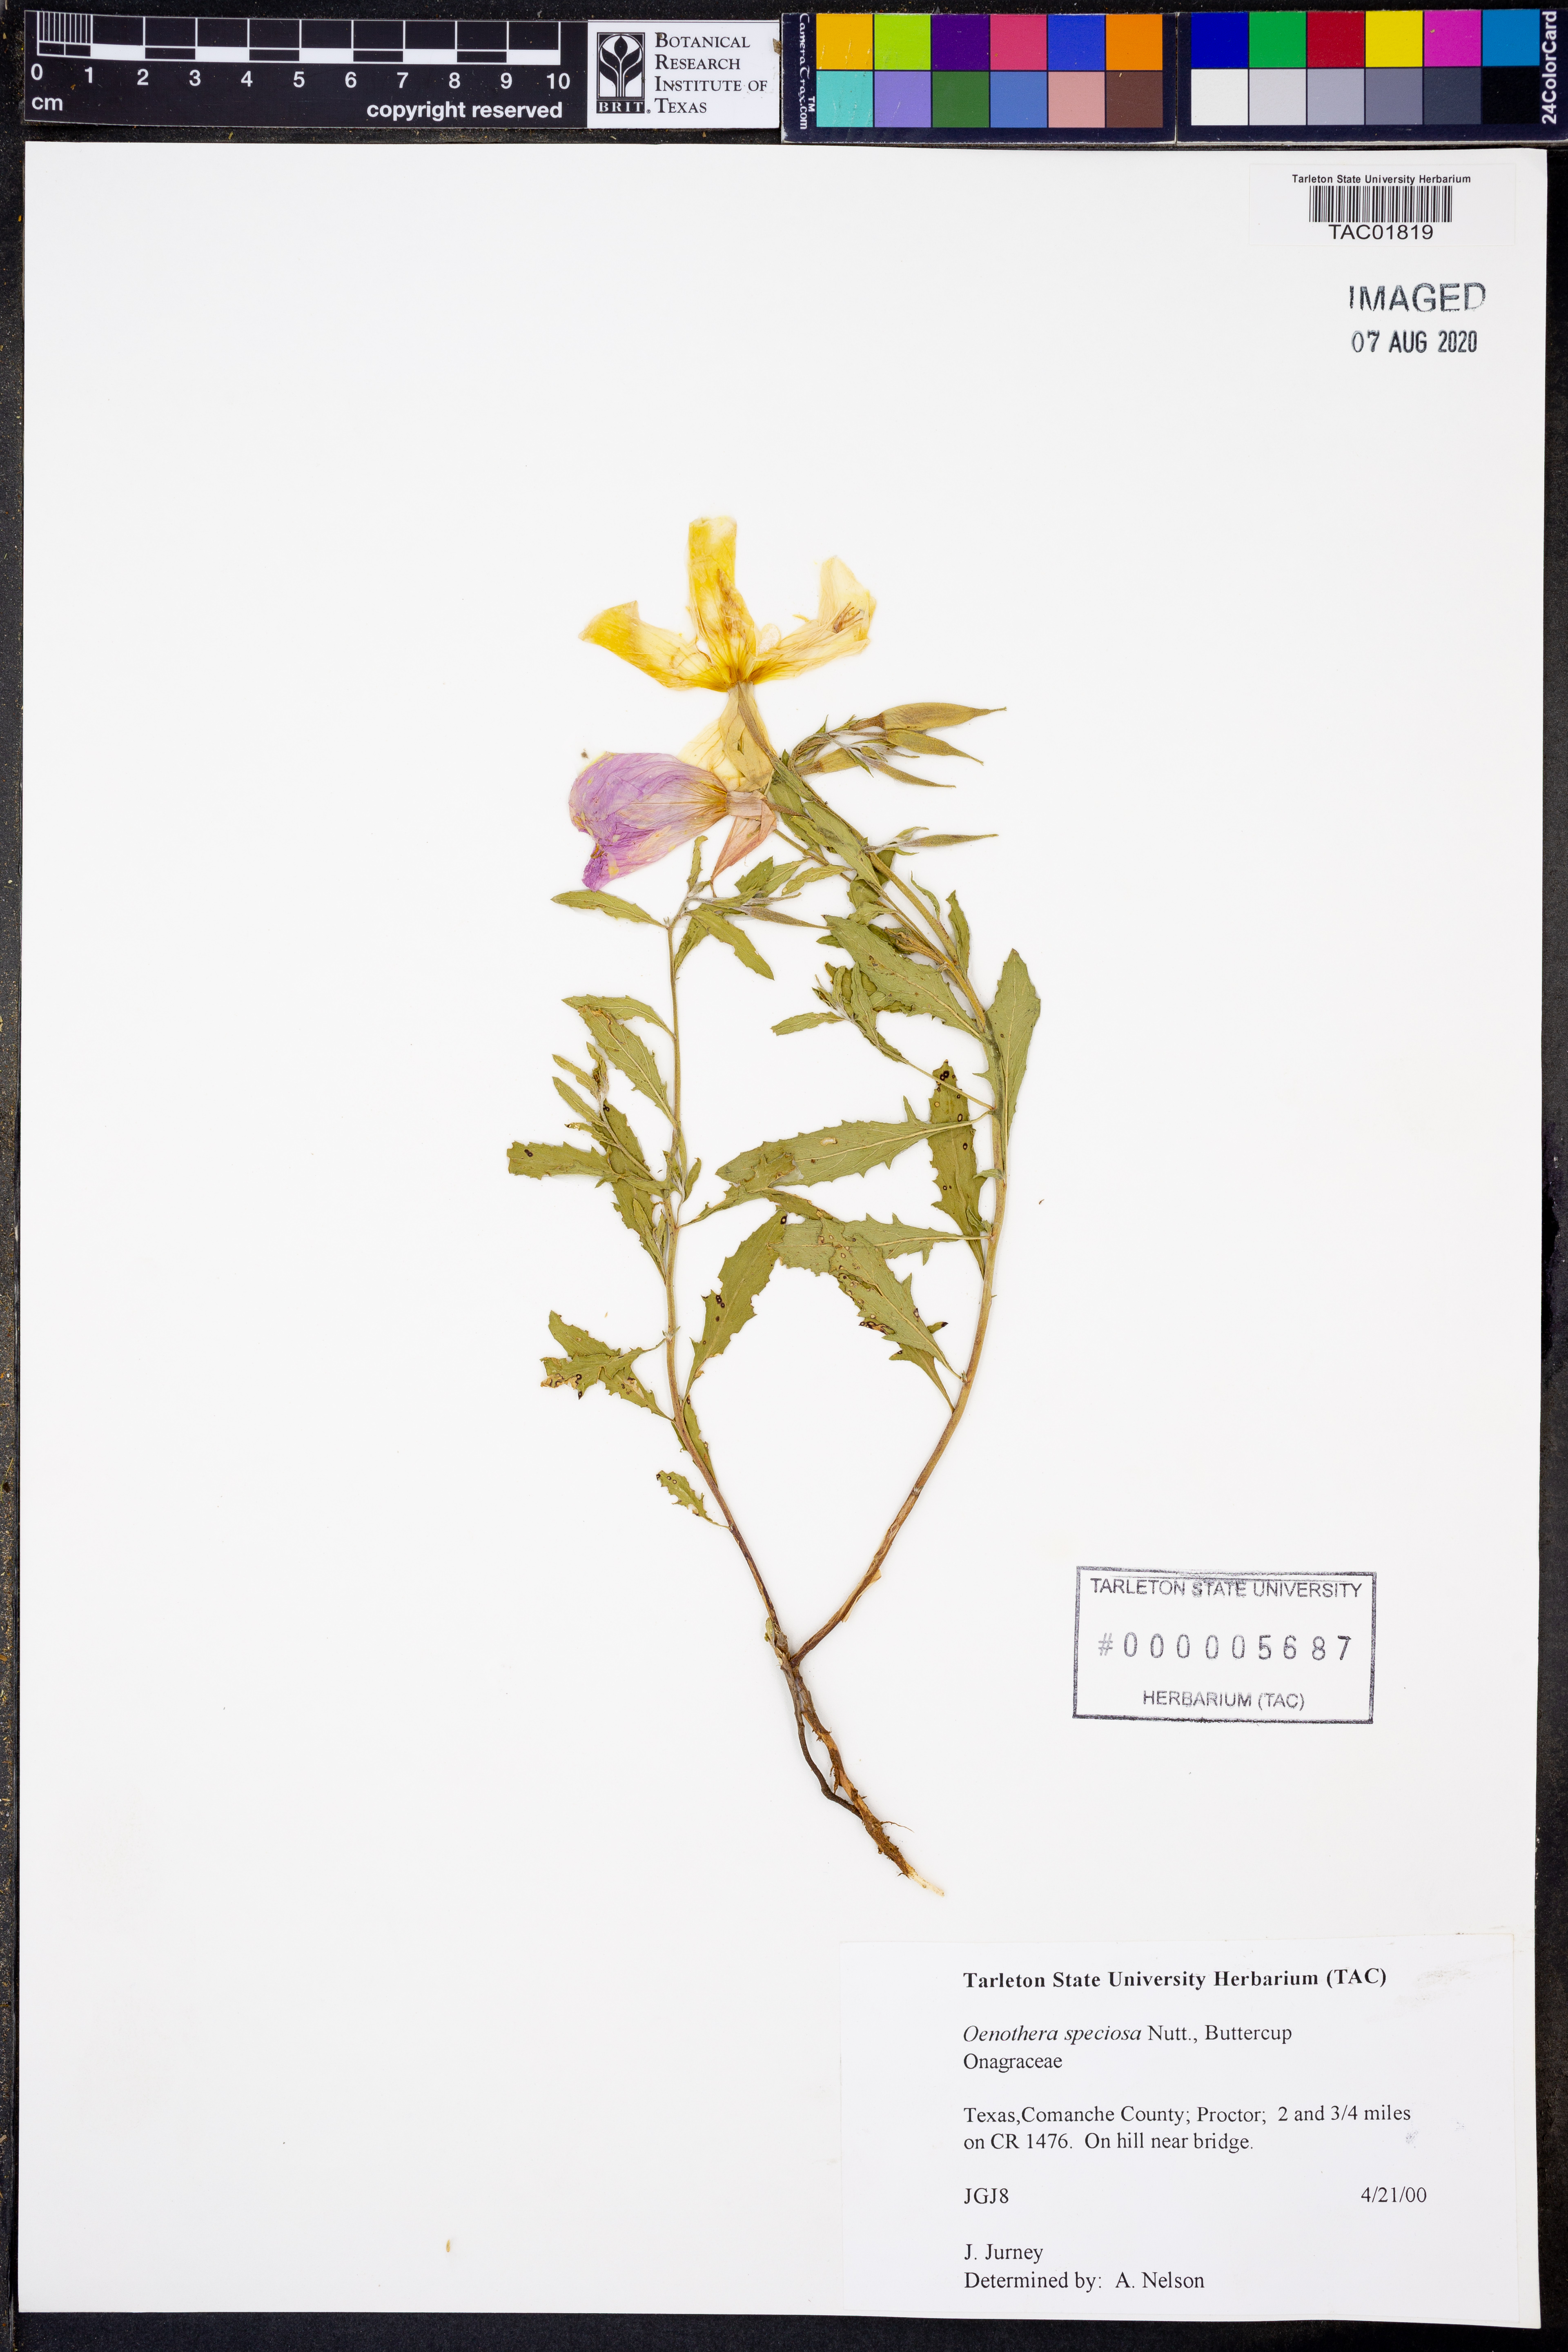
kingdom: Plantae
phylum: Tracheophyta
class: Magnoliopsida
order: Myrtales
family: Onagraceae
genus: Oenothera
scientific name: Oenothera speciosa
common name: White evening-primrose
